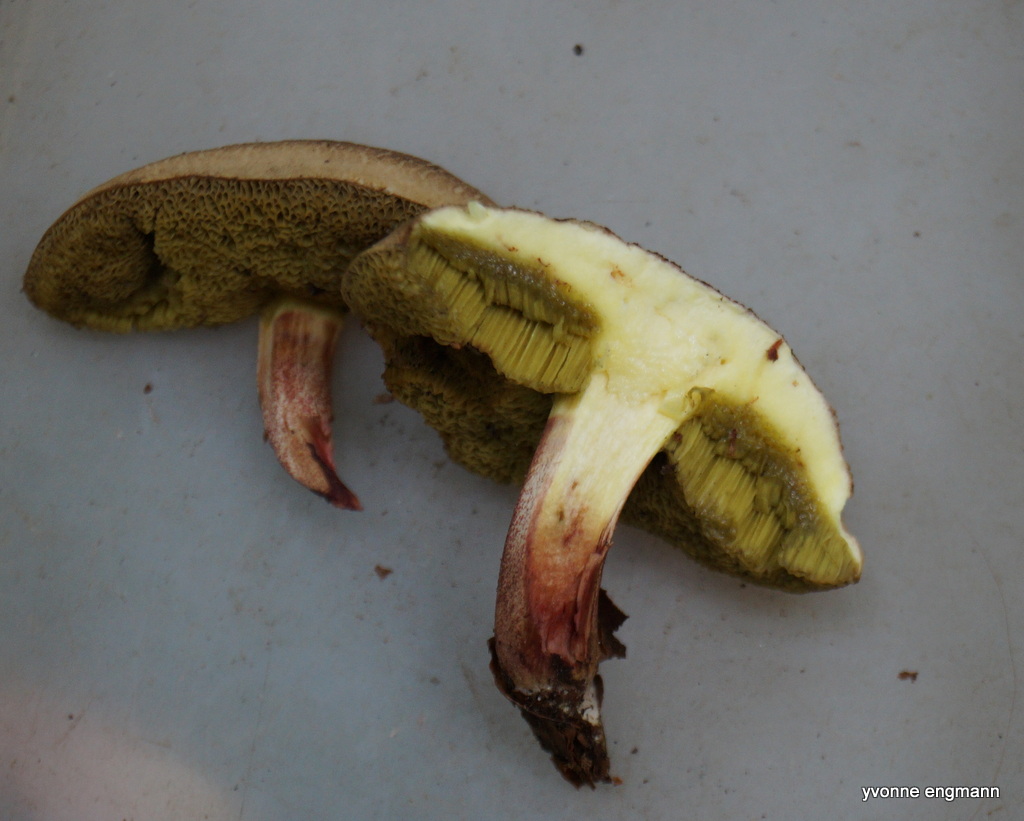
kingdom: Fungi
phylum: Basidiomycota
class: Agaricomycetes
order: Boletales
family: Boletaceae
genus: Xerocomellus
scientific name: Xerocomellus chrysenteron
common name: rødsprukken rørhat
